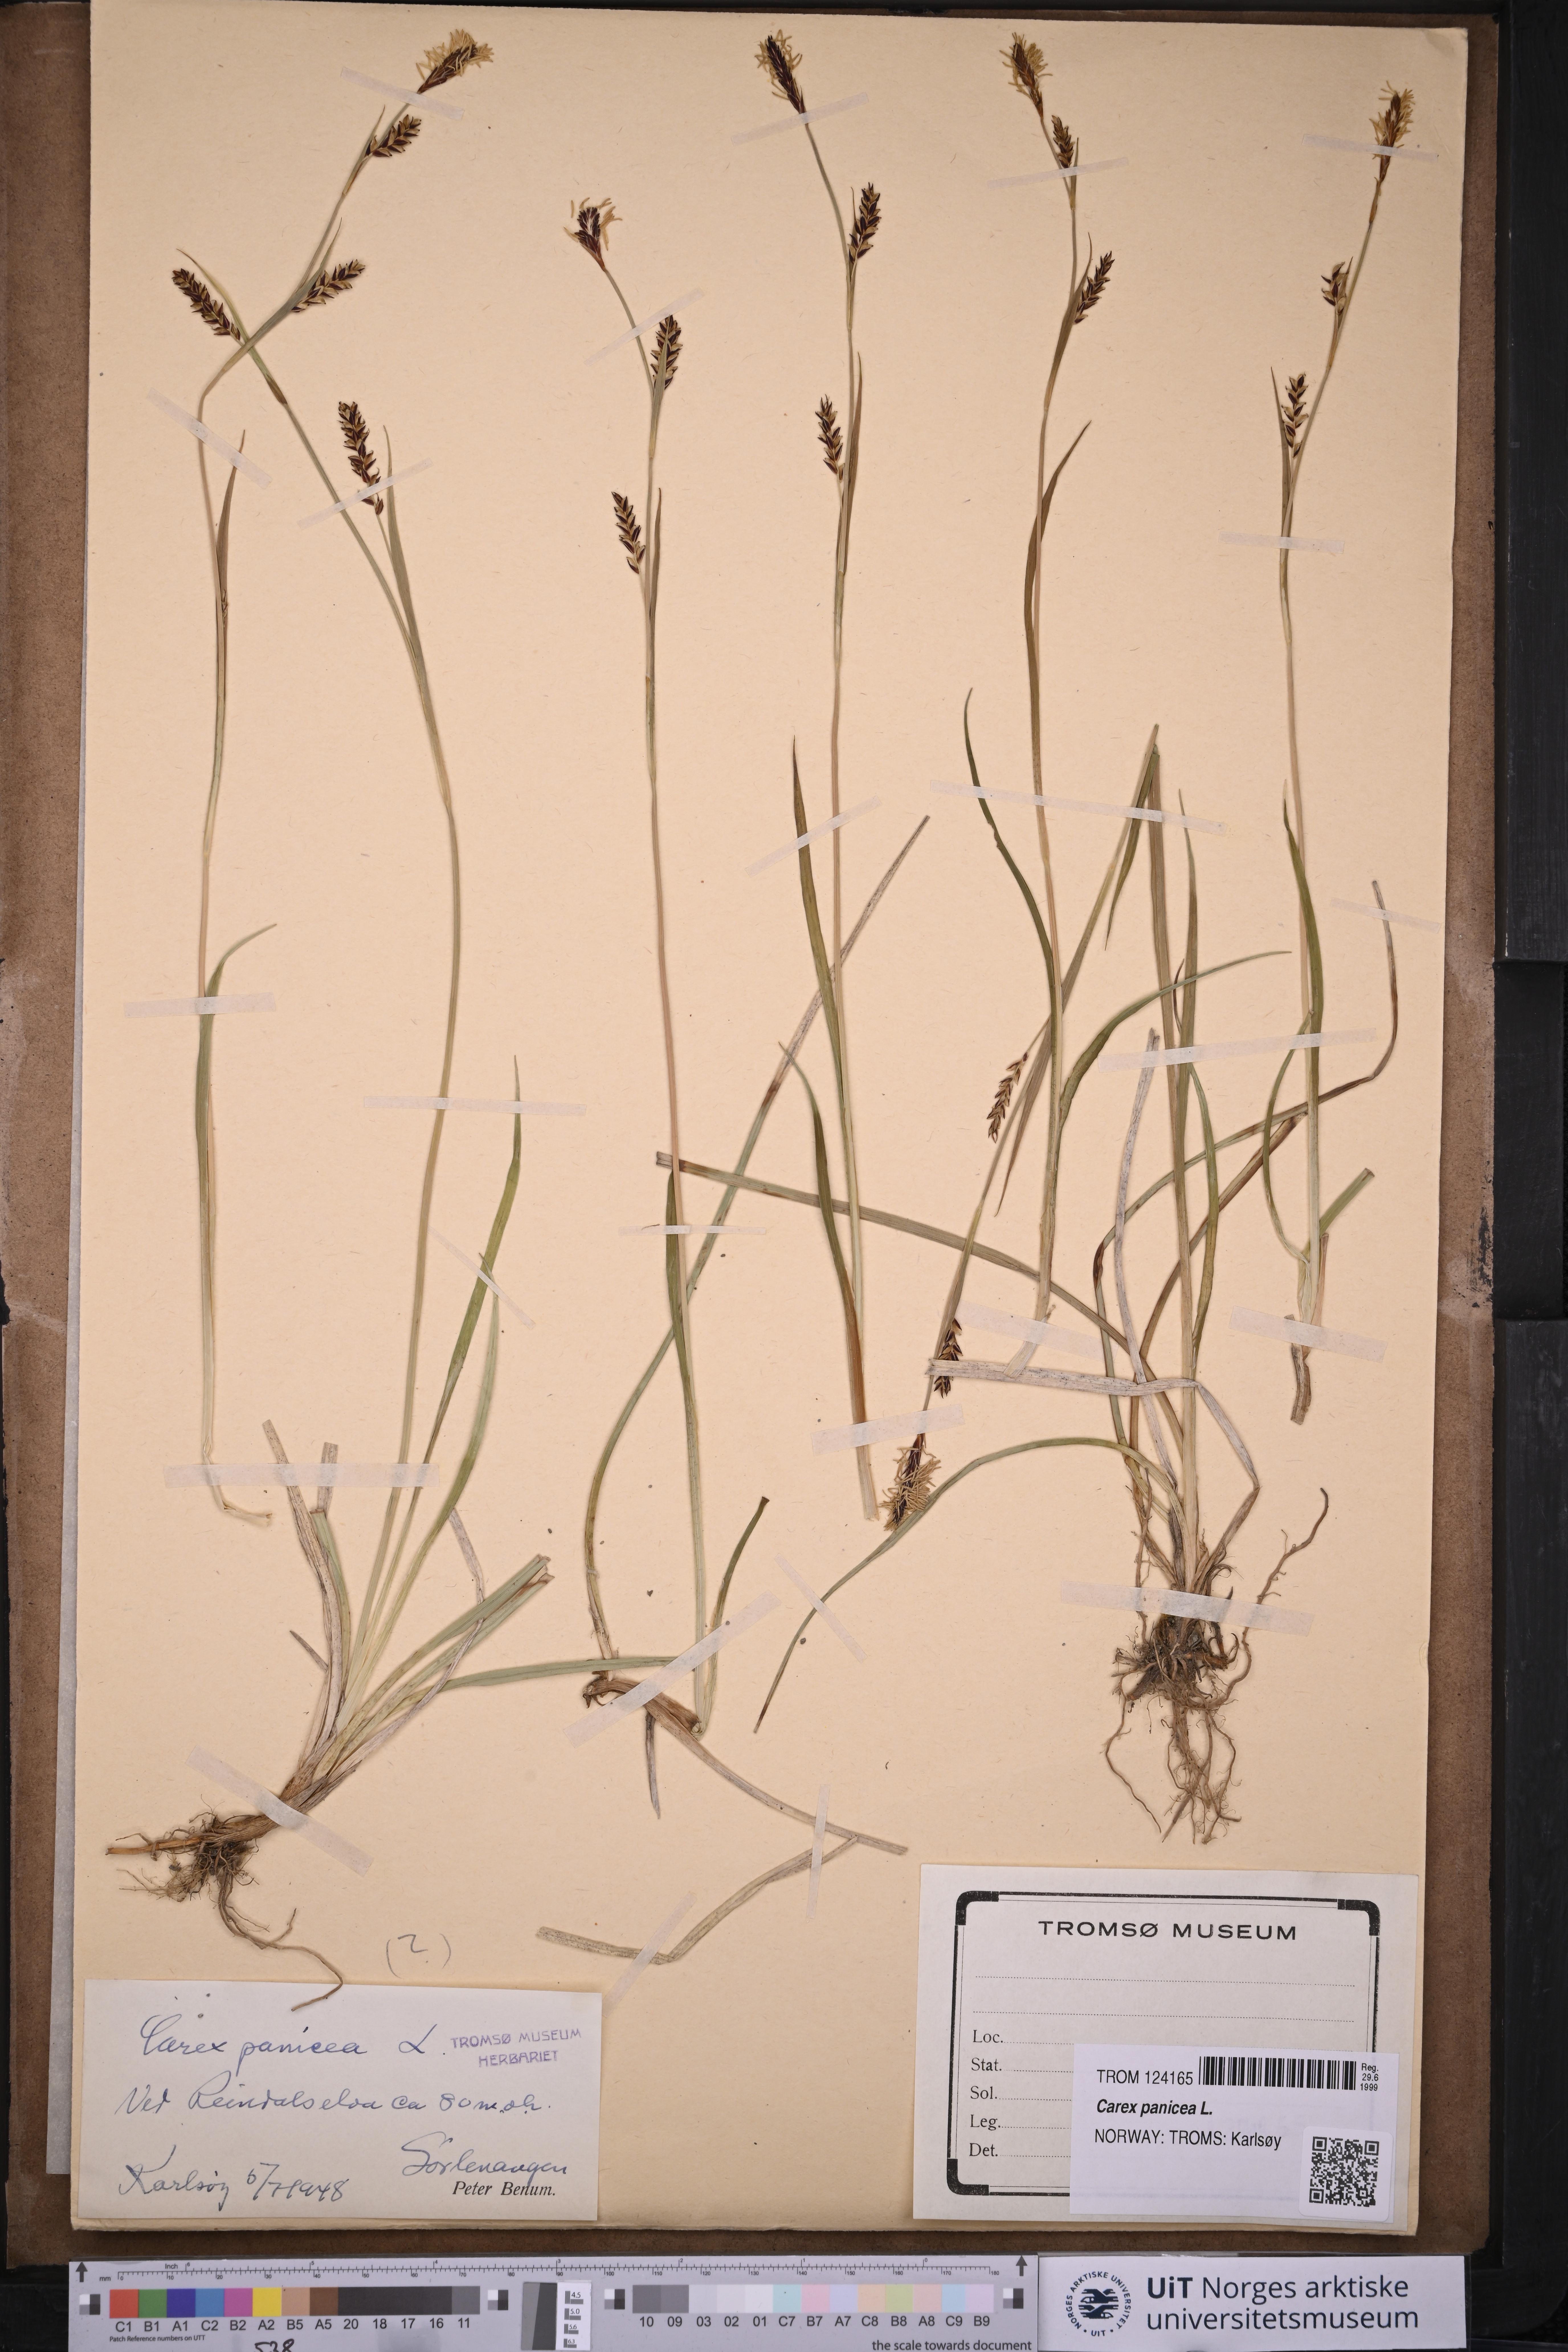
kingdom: Plantae
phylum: Tracheophyta
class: Liliopsida
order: Poales
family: Cyperaceae
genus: Carex
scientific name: Carex panicea
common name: Carnation sedge
